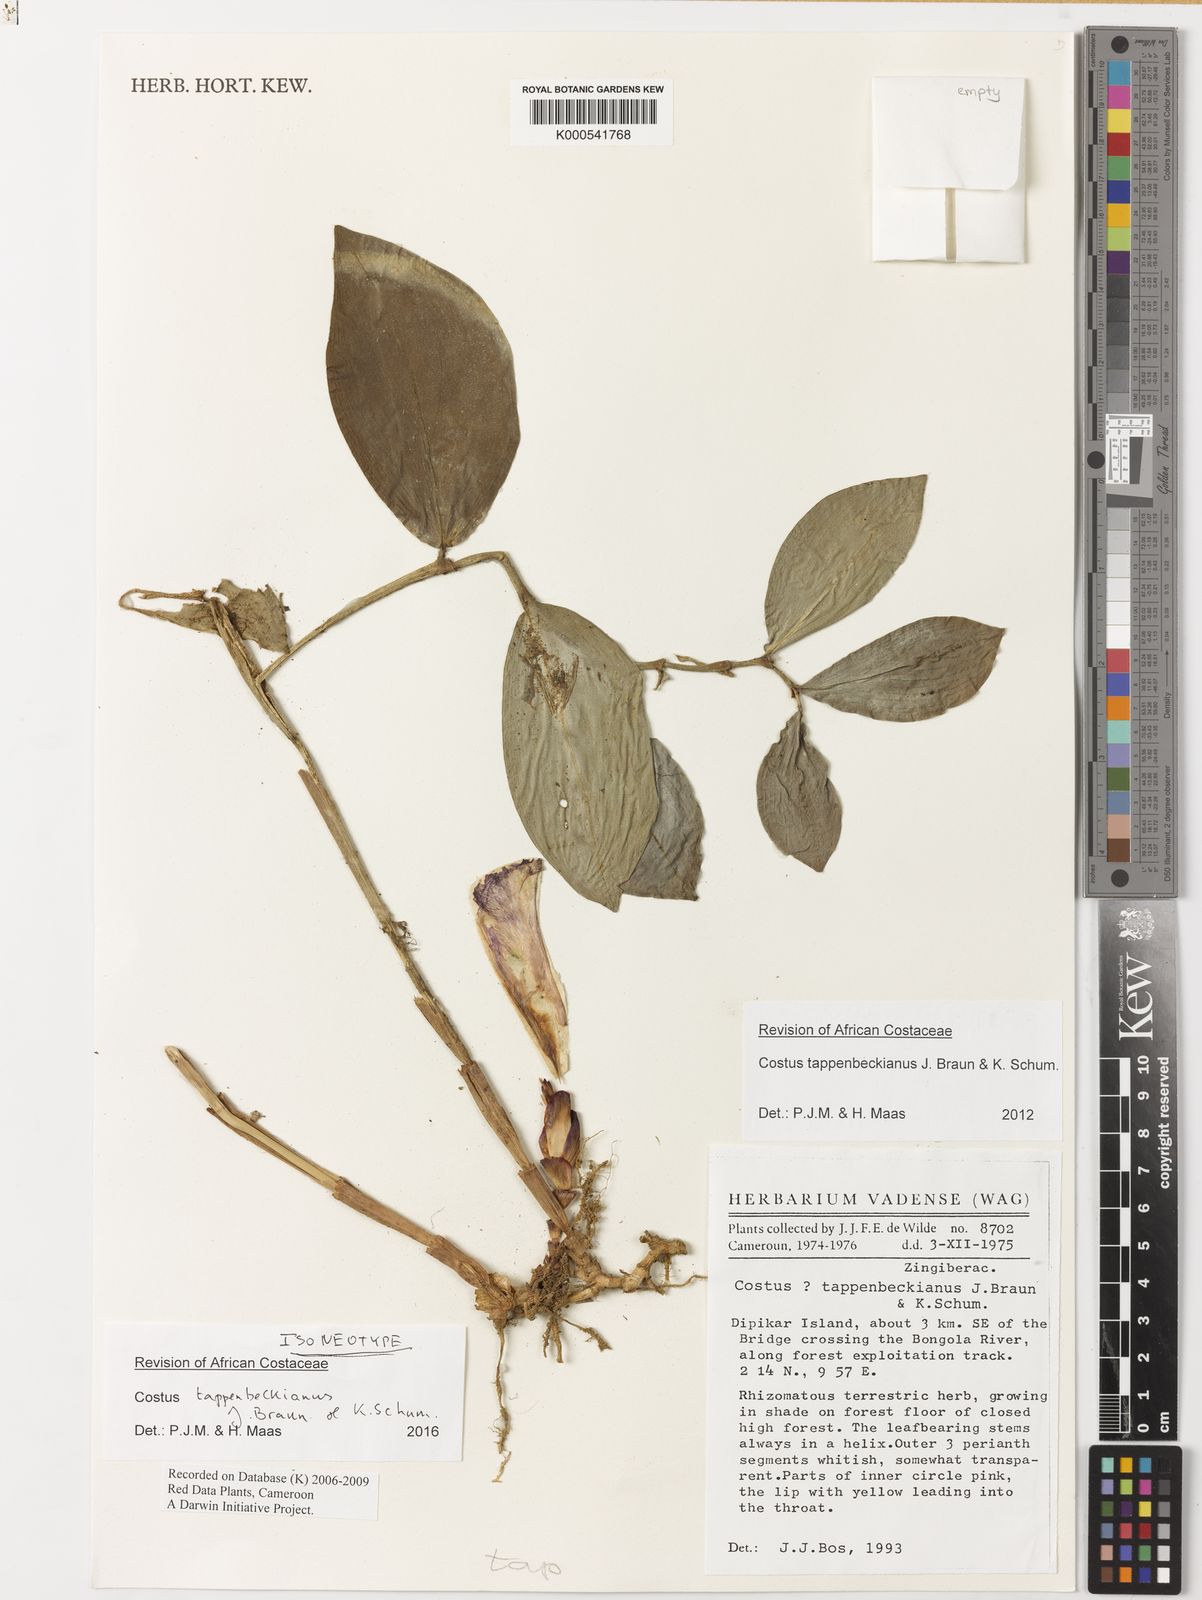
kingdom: Plantae
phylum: Tracheophyta
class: Liliopsida
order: Zingiberales
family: Costaceae
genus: Costus
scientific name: Costus tappenbeckianus
